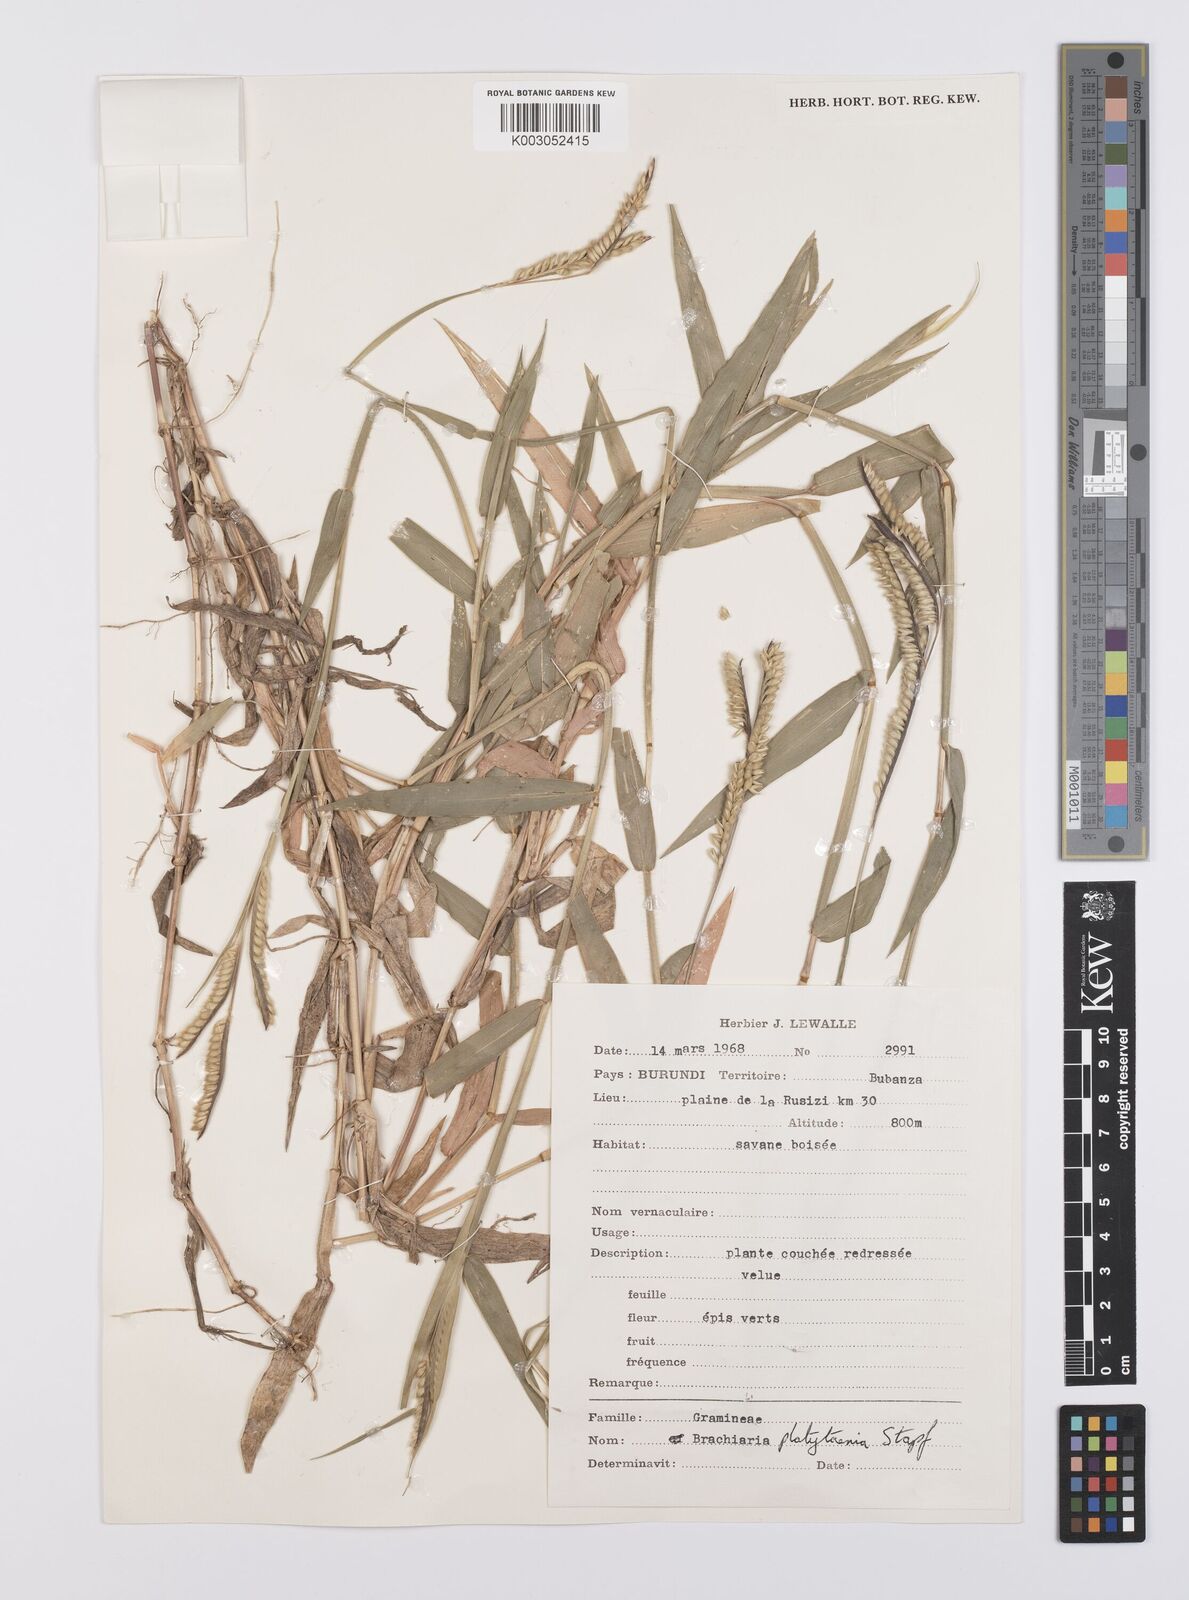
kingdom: Plantae
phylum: Tracheophyta
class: Liliopsida
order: Poales
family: Poaceae
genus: Urochloa
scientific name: Urochloa eminii
